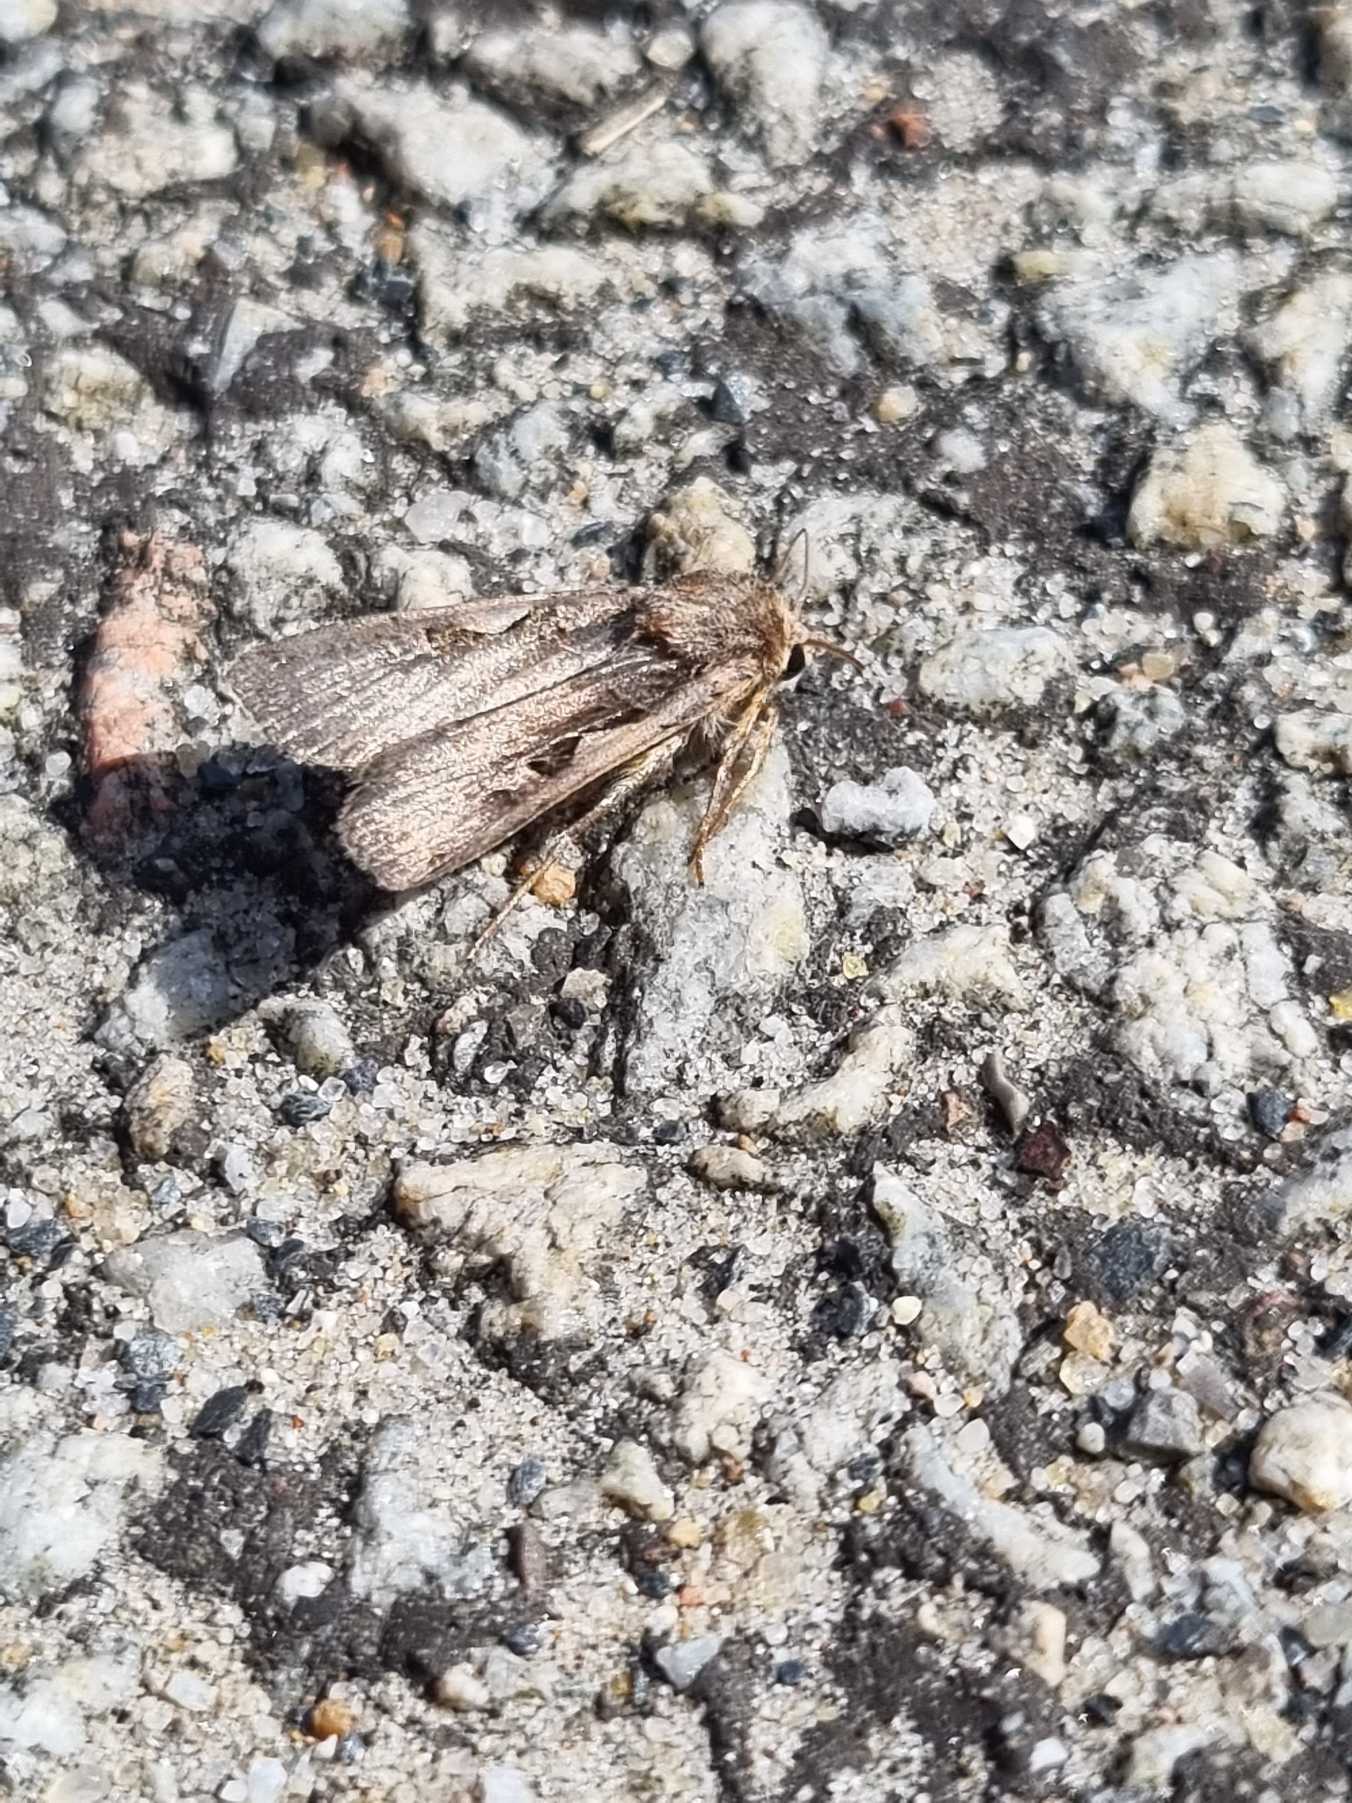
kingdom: Animalia
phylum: Arthropoda
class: Insecta
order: Lepidoptera
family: Noctuidae
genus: Xestia
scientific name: Xestia c-nigrum
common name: Det sorte c
